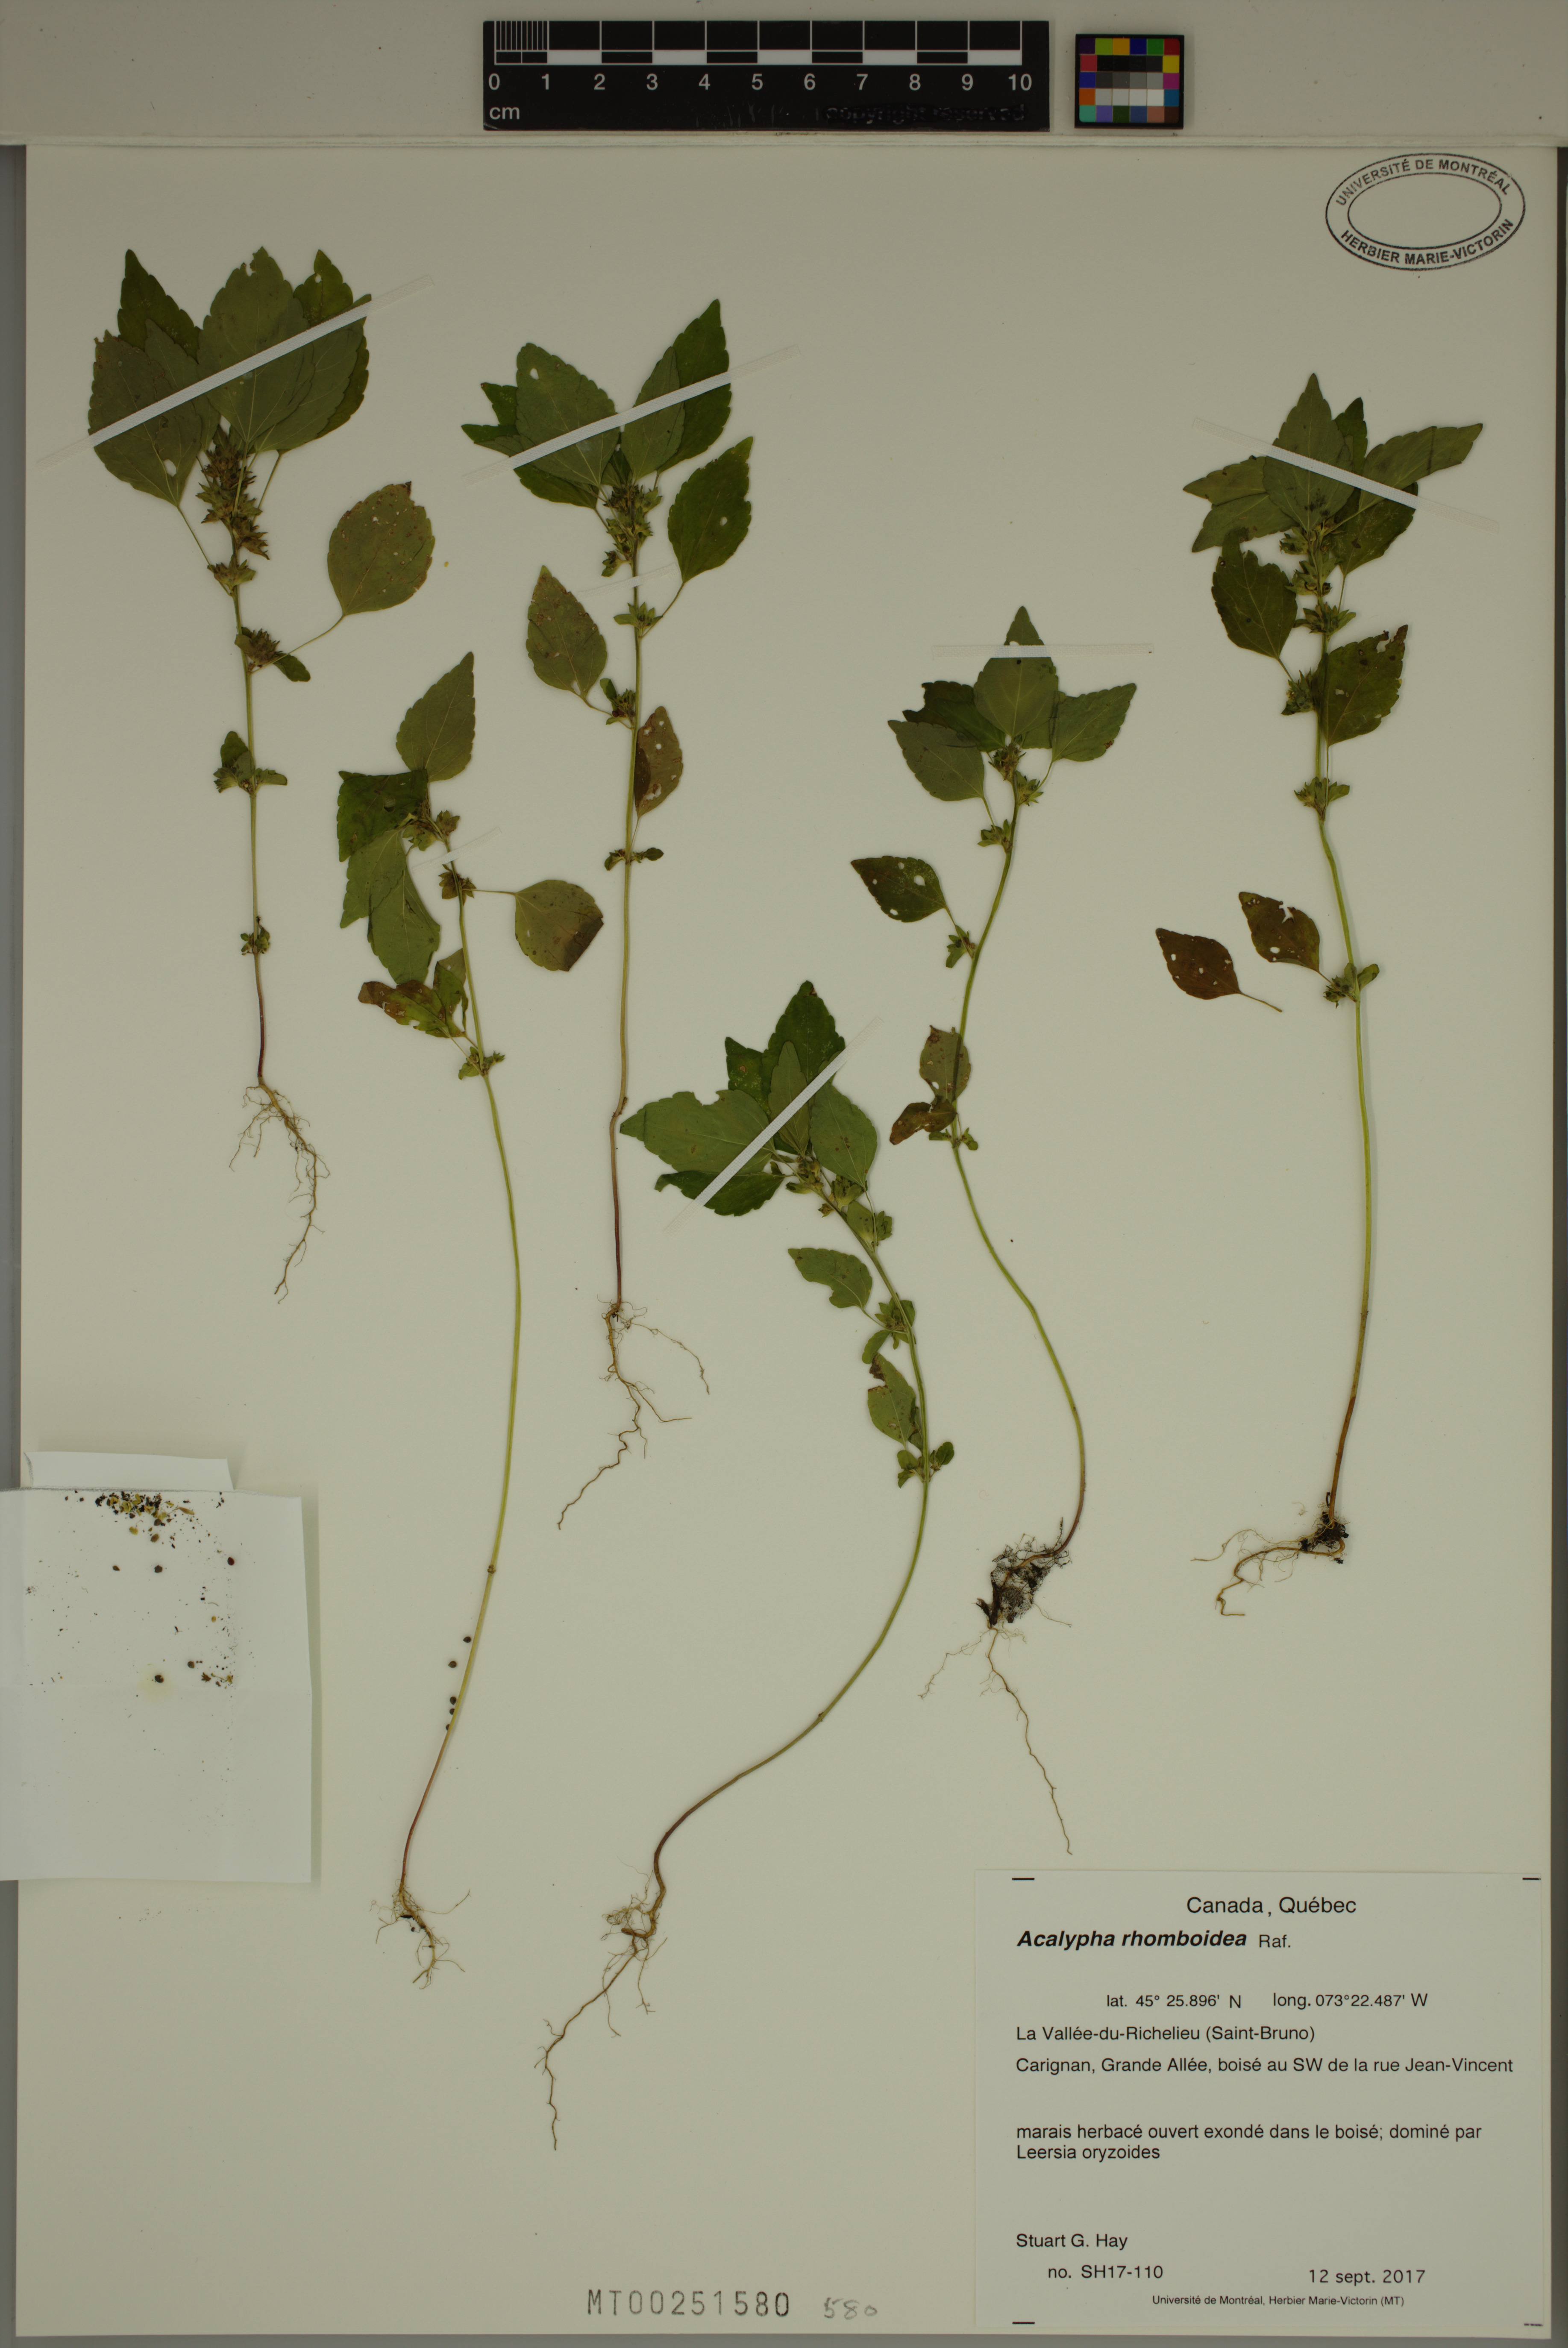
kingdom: Plantae
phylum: Tracheophyta
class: Magnoliopsida
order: Malpighiales
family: Euphorbiaceae
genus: Acalypha
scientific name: Acalypha rhomboidea
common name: Rhombic copperleaf
